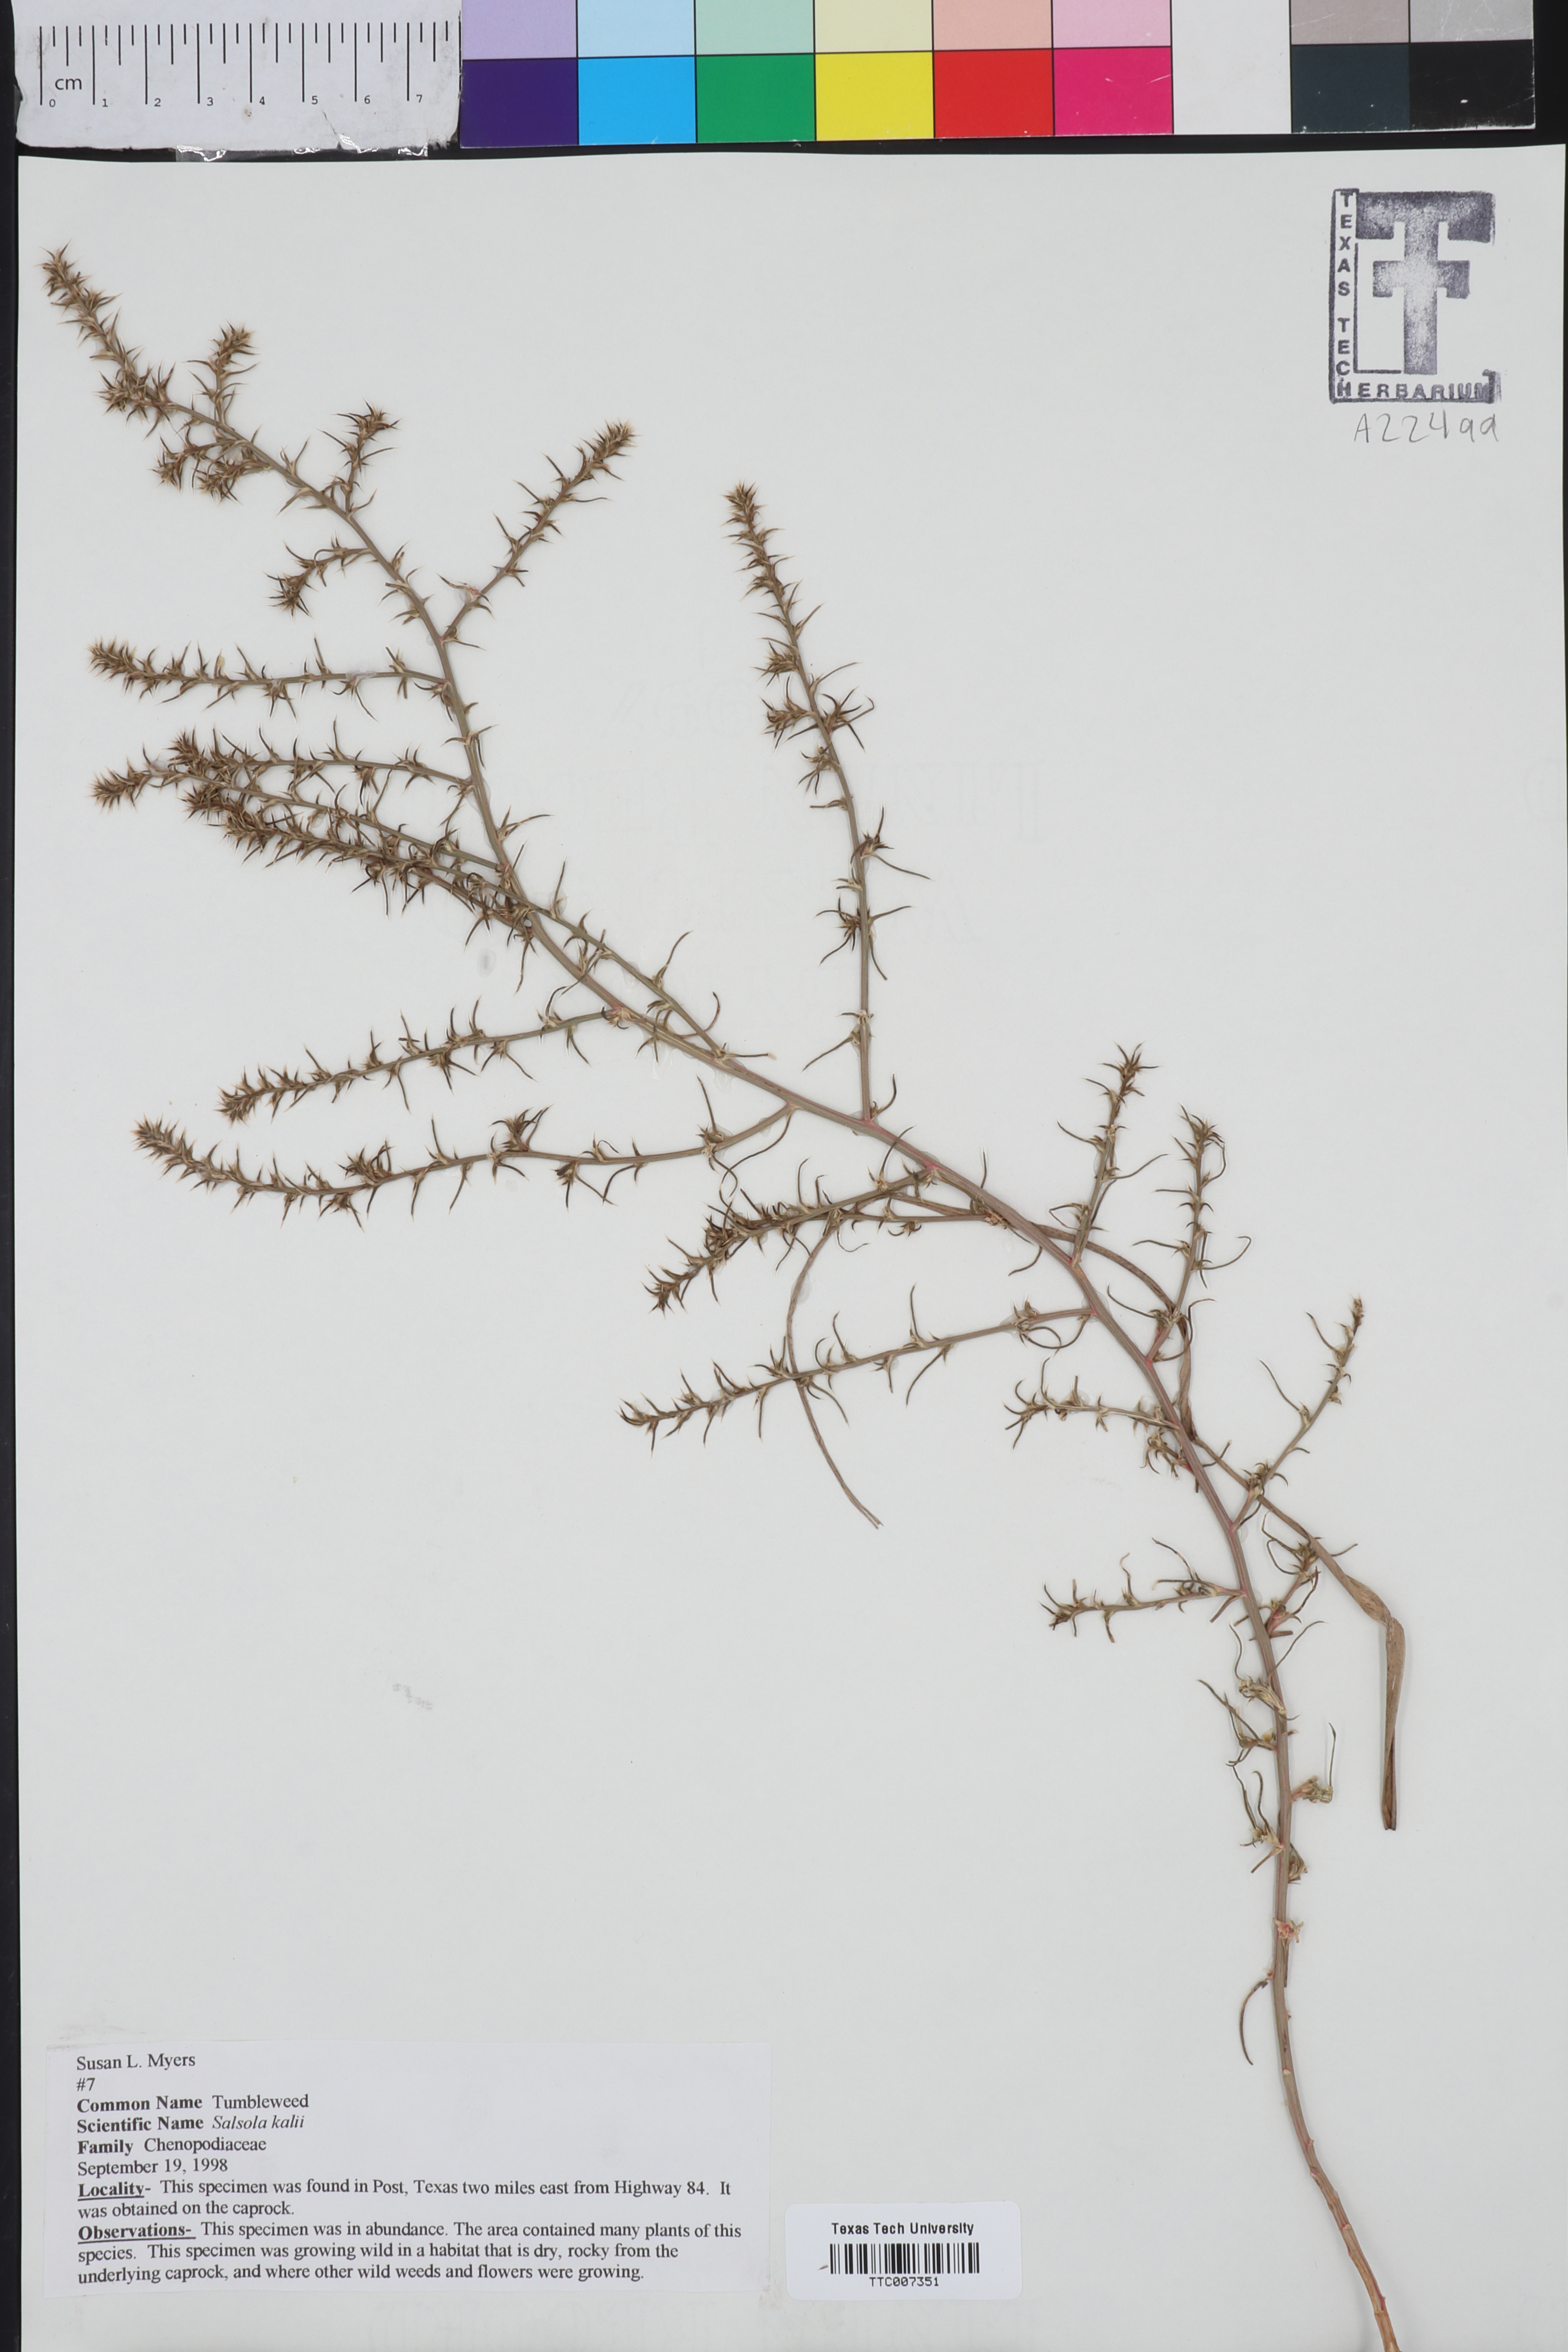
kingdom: Plantae
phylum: Tracheophyta
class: Magnoliopsida
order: Caryophyllales
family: Amaranthaceae
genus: Suaeda
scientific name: Suaeda
